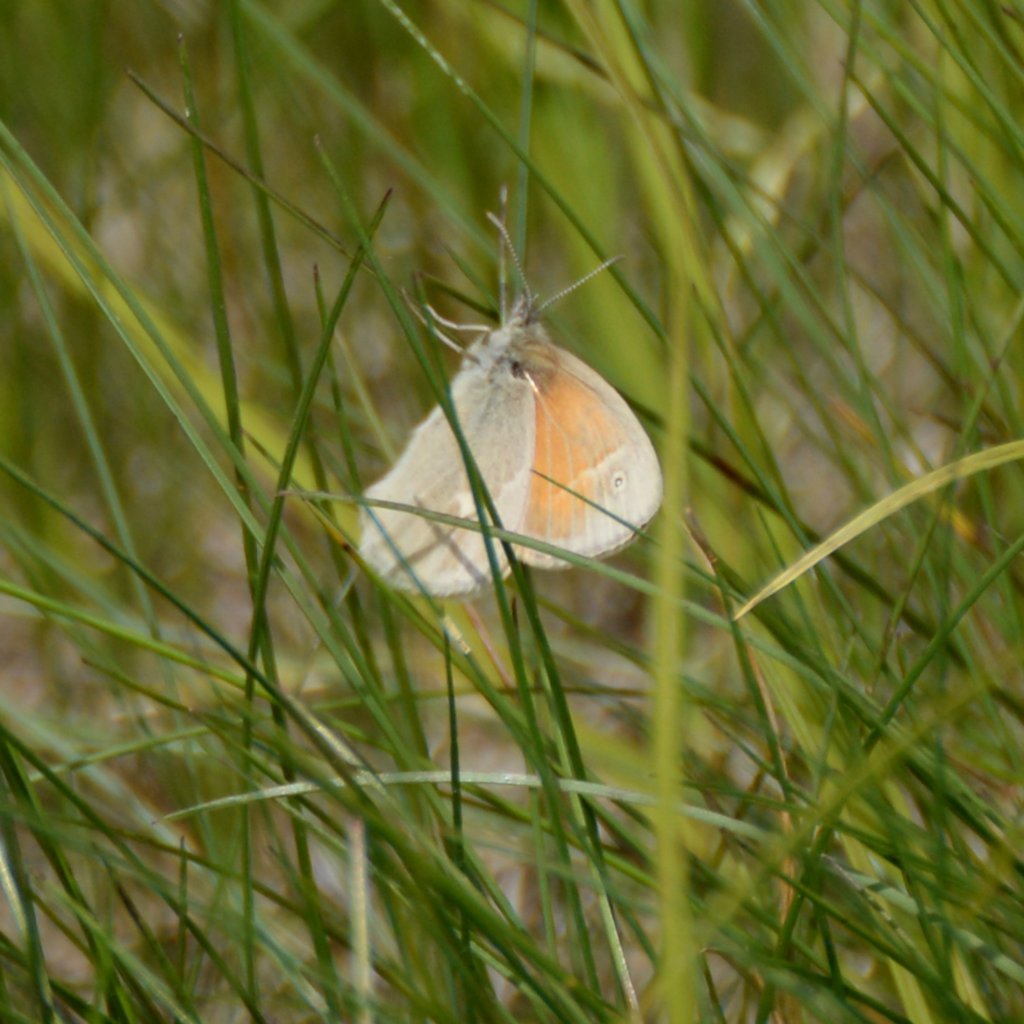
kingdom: Animalia
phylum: Arthropoda
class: Insecta
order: Lepidoptera
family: Nymphalidae
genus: Coenonympha
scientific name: Coenonympha tullia
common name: Large Heath
